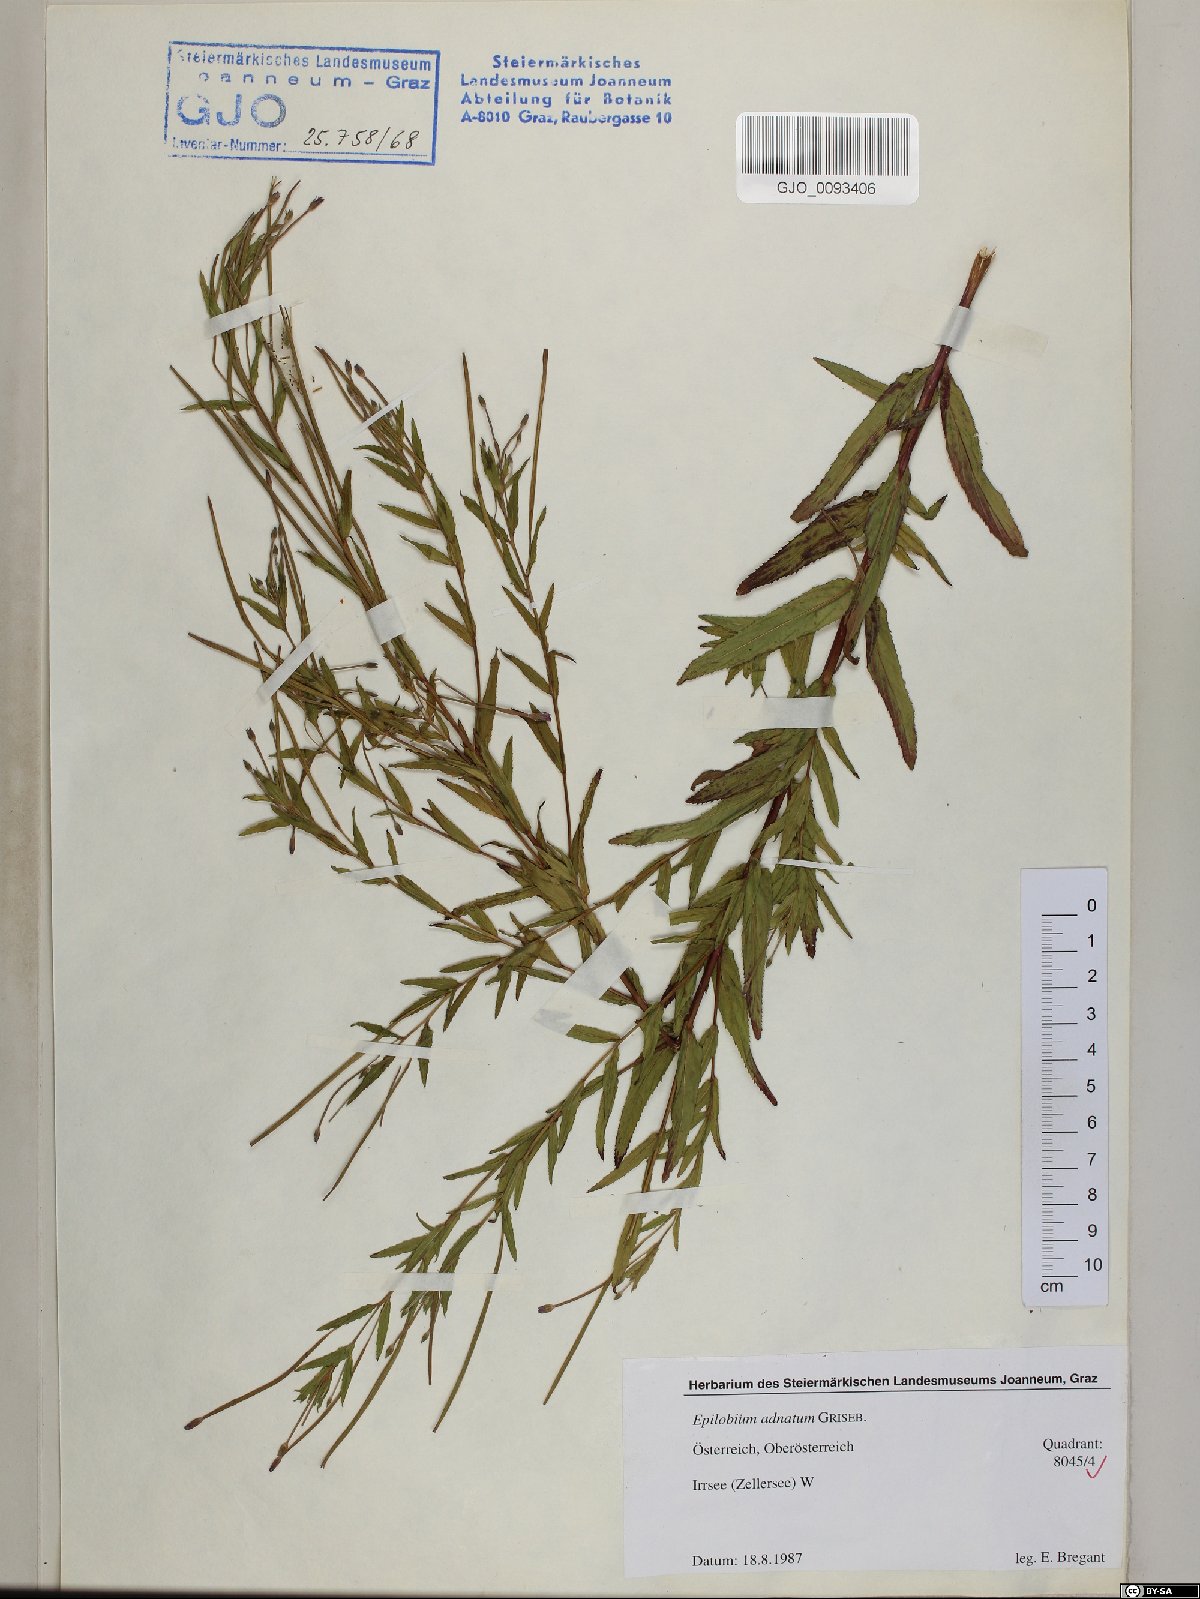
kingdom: Plantae
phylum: Tracheophyta
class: Magnoliopsida
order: Myrtales
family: Onagraceae
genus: Epilobium
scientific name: Epilobium tetragonum
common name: Square-stemmed willowherb
